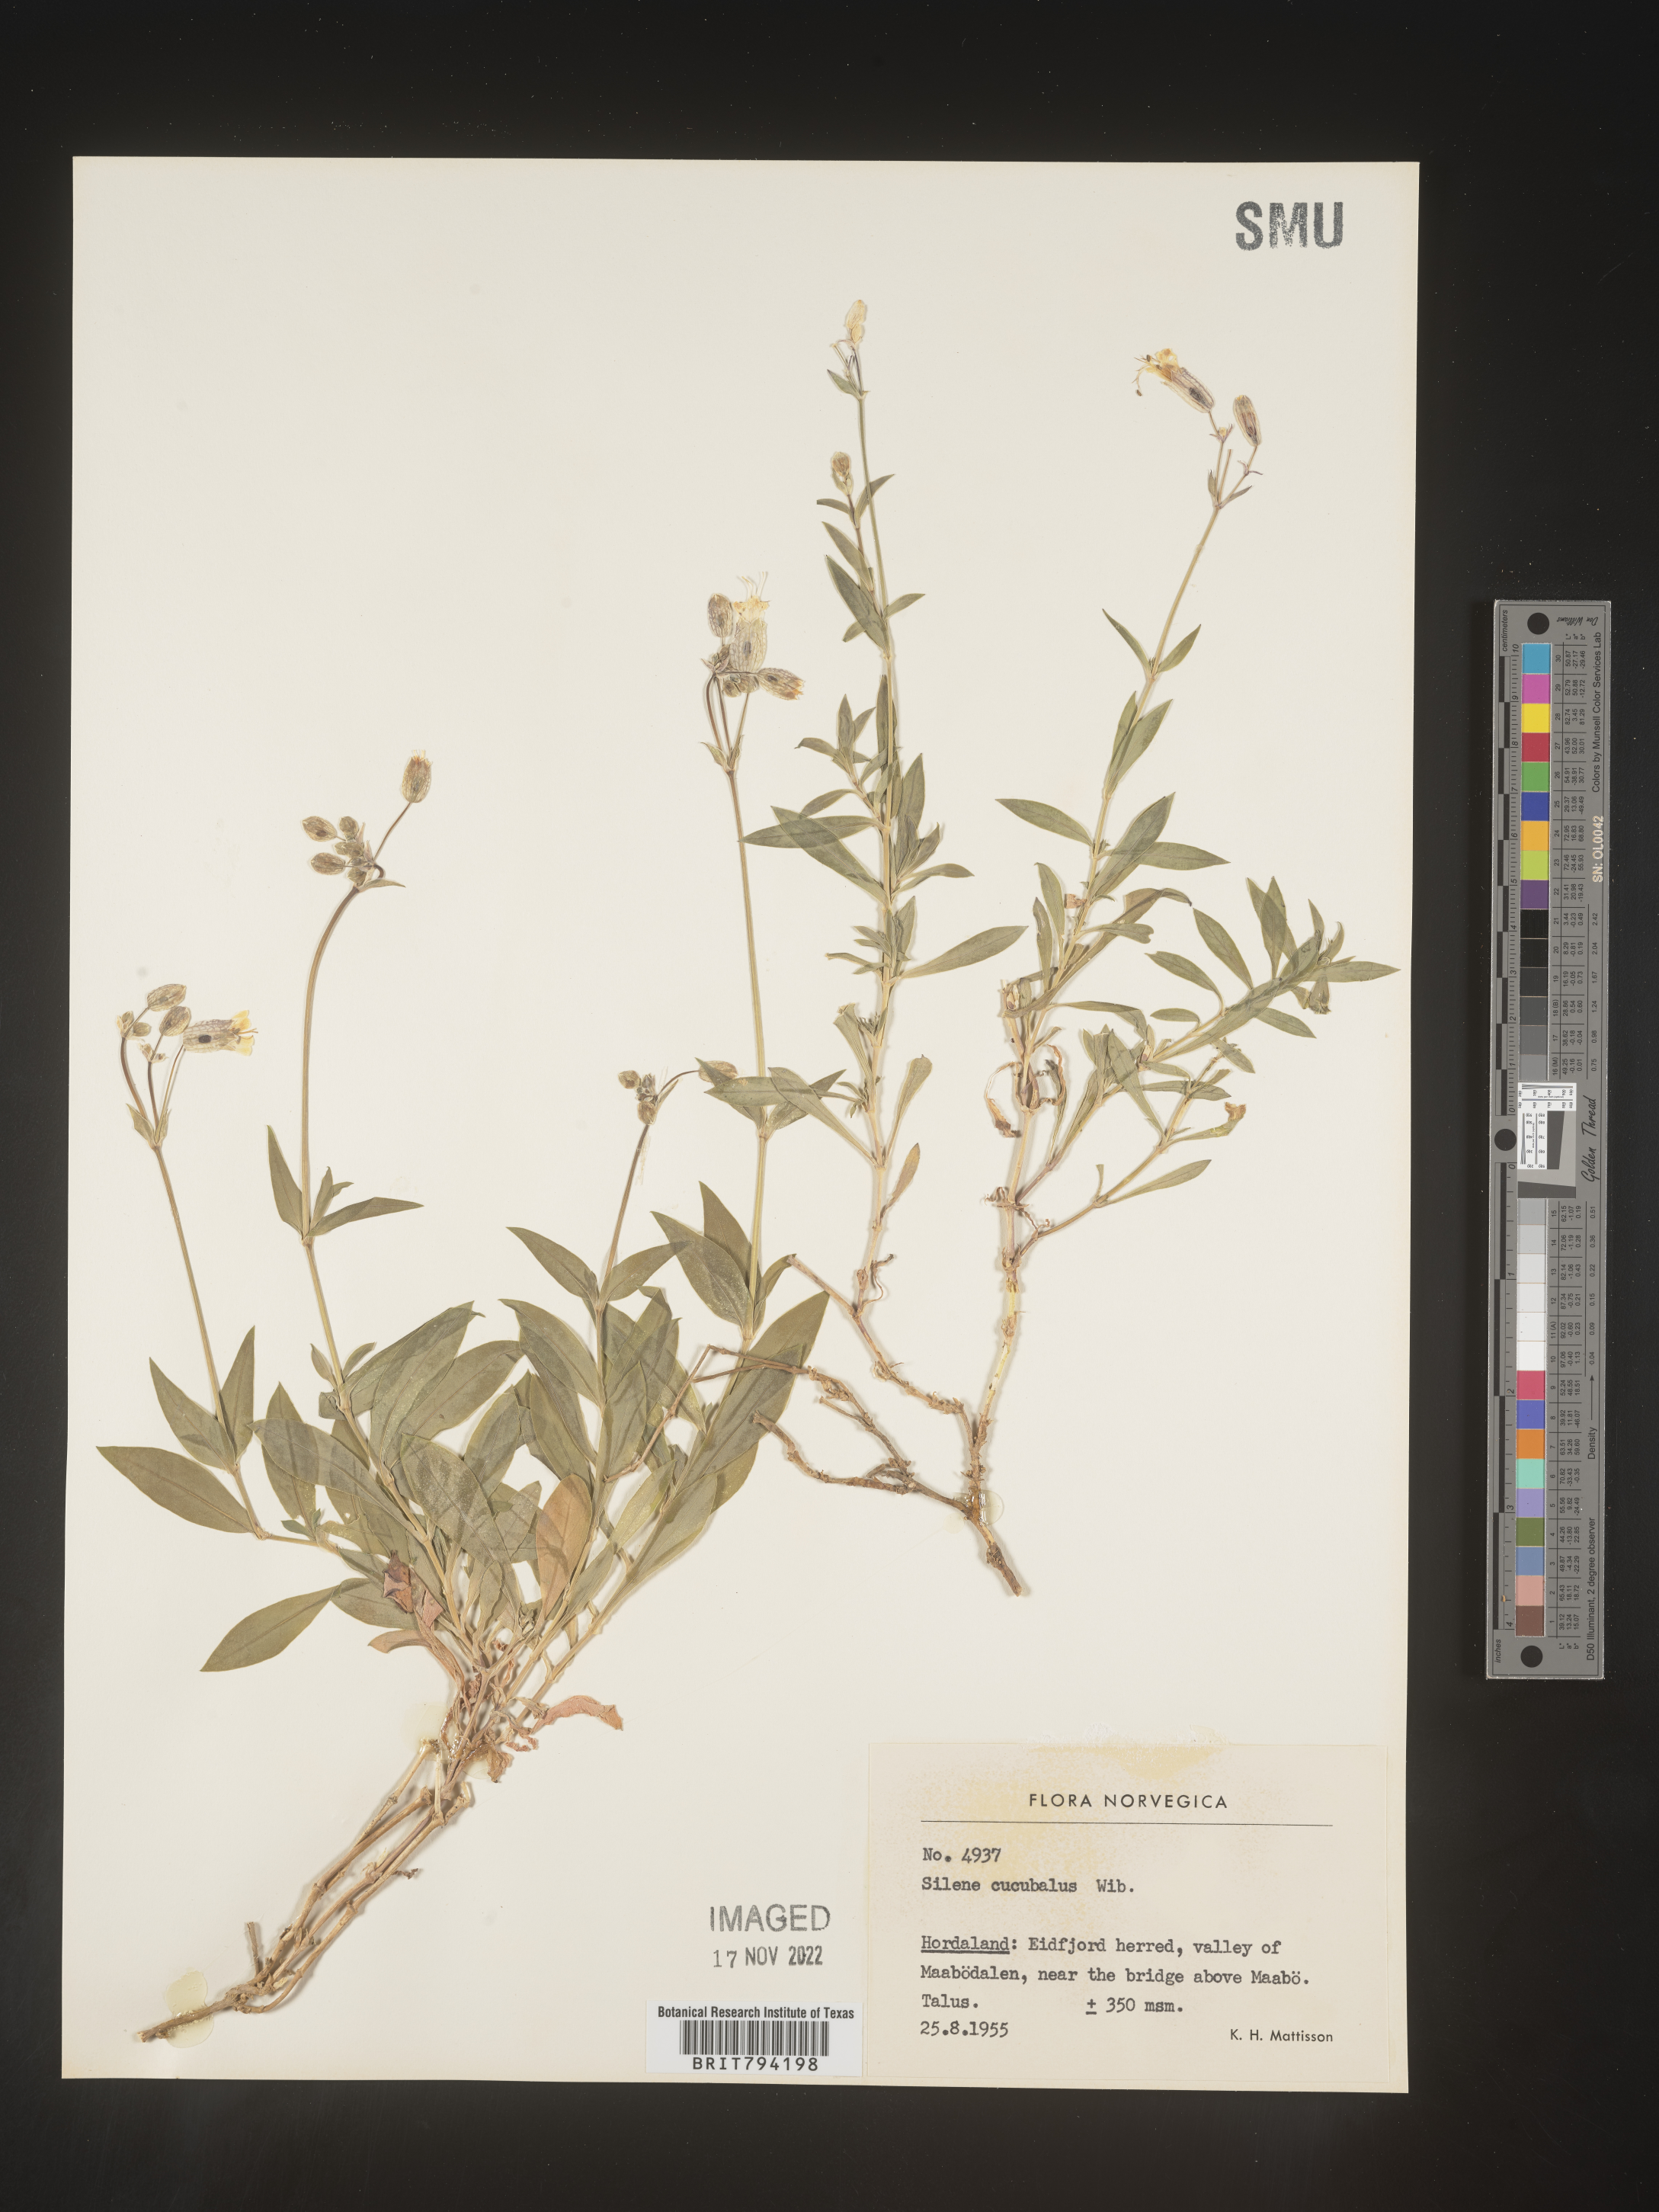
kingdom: Plantae
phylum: Tracheophyta
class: Magnoliopsida
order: Caryophyllales
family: Caryophyllaceae
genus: Silene
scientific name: Silene vulgaris
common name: Bladder campion
